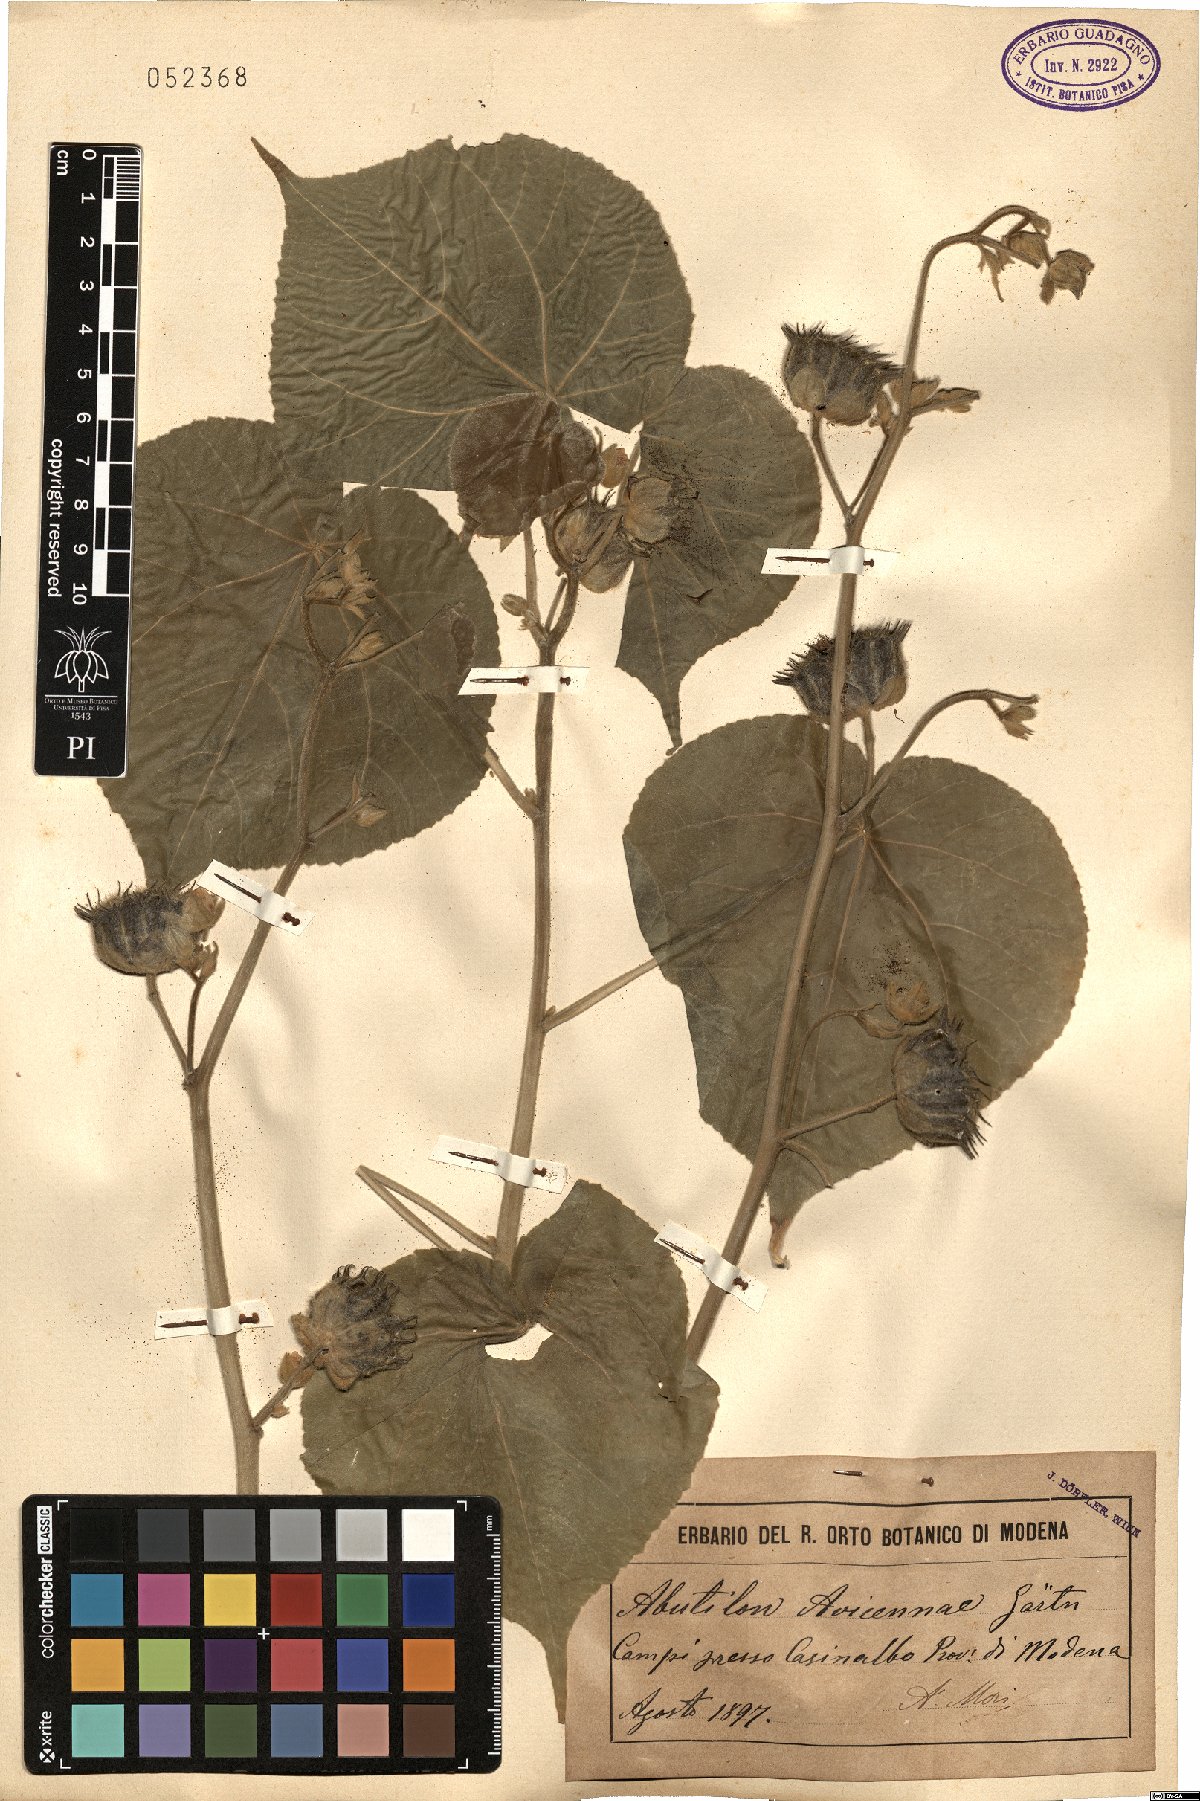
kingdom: Plantae
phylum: Tracheophyta
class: Magnoliopsida
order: Malvales
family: Malvaceae
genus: Abutilon
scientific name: Abutilon theophrasti
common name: Velvetleaf
